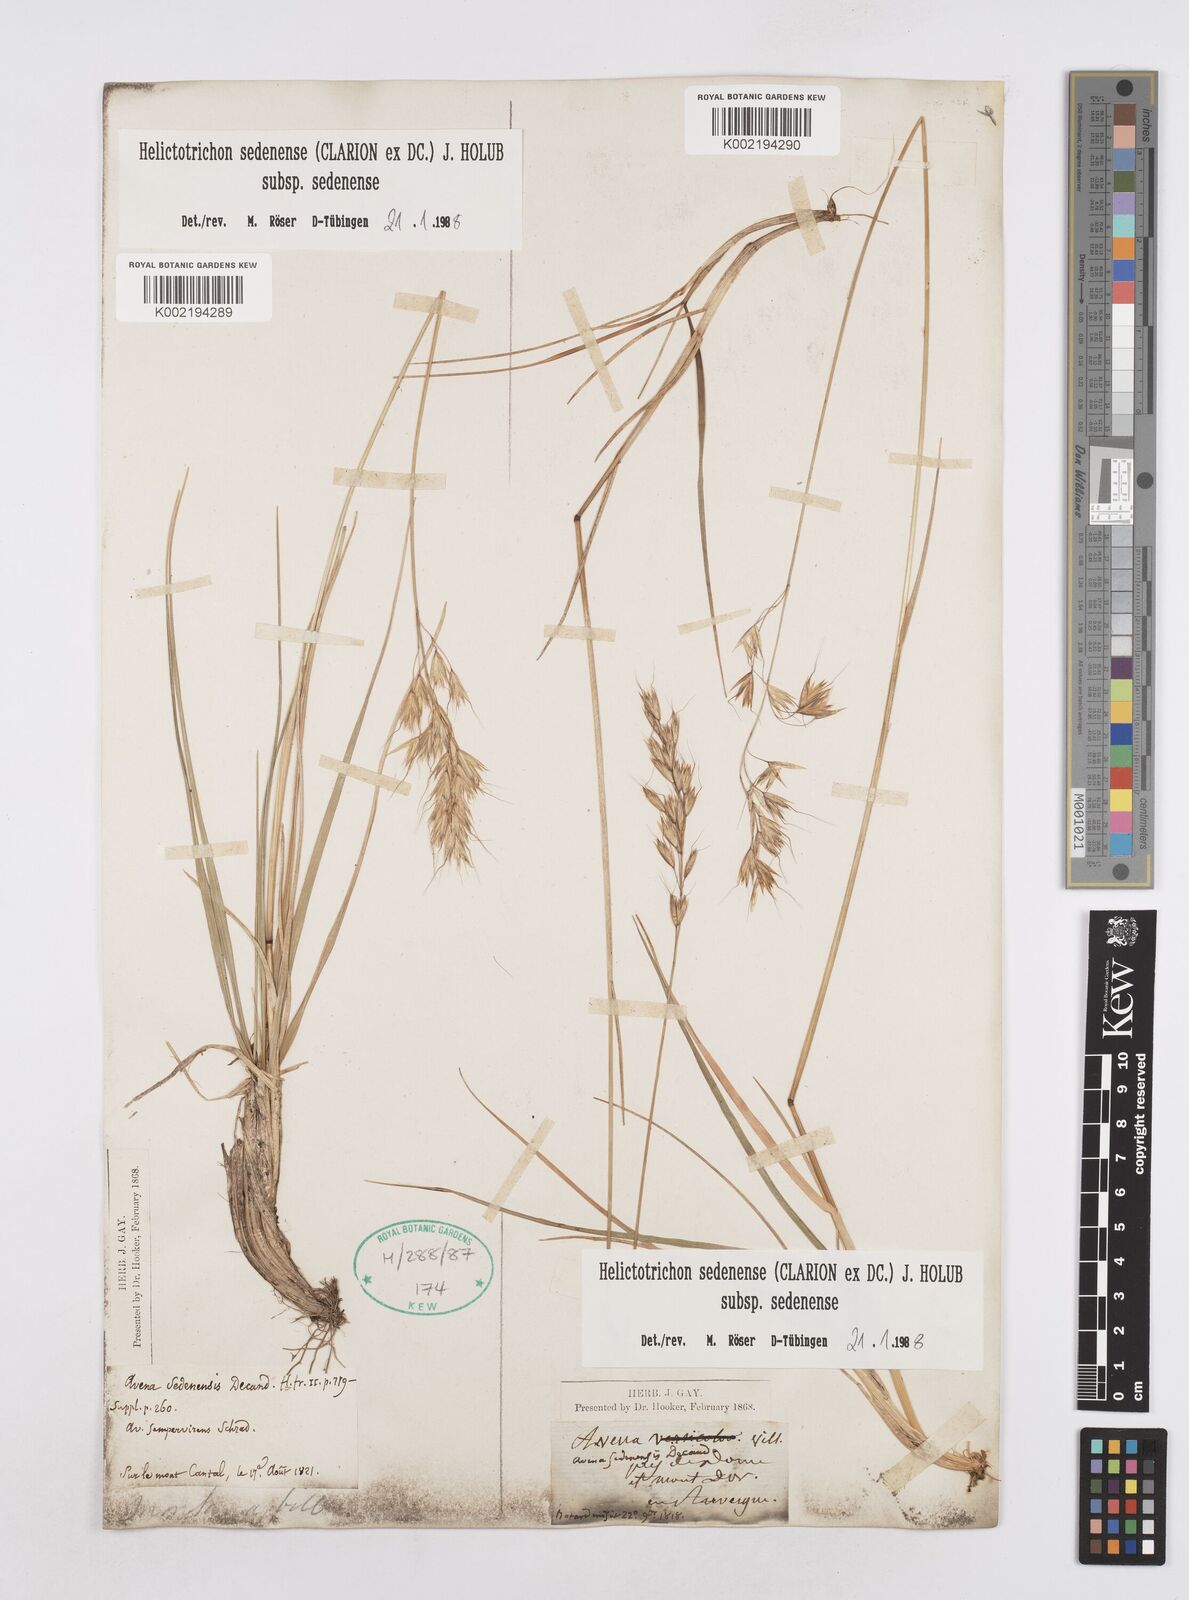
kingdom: Plantae
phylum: Tracheophyta
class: Liliopsida
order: Poales
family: Poaceae
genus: Helictotrichon
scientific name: Helictotrichon sedenense
